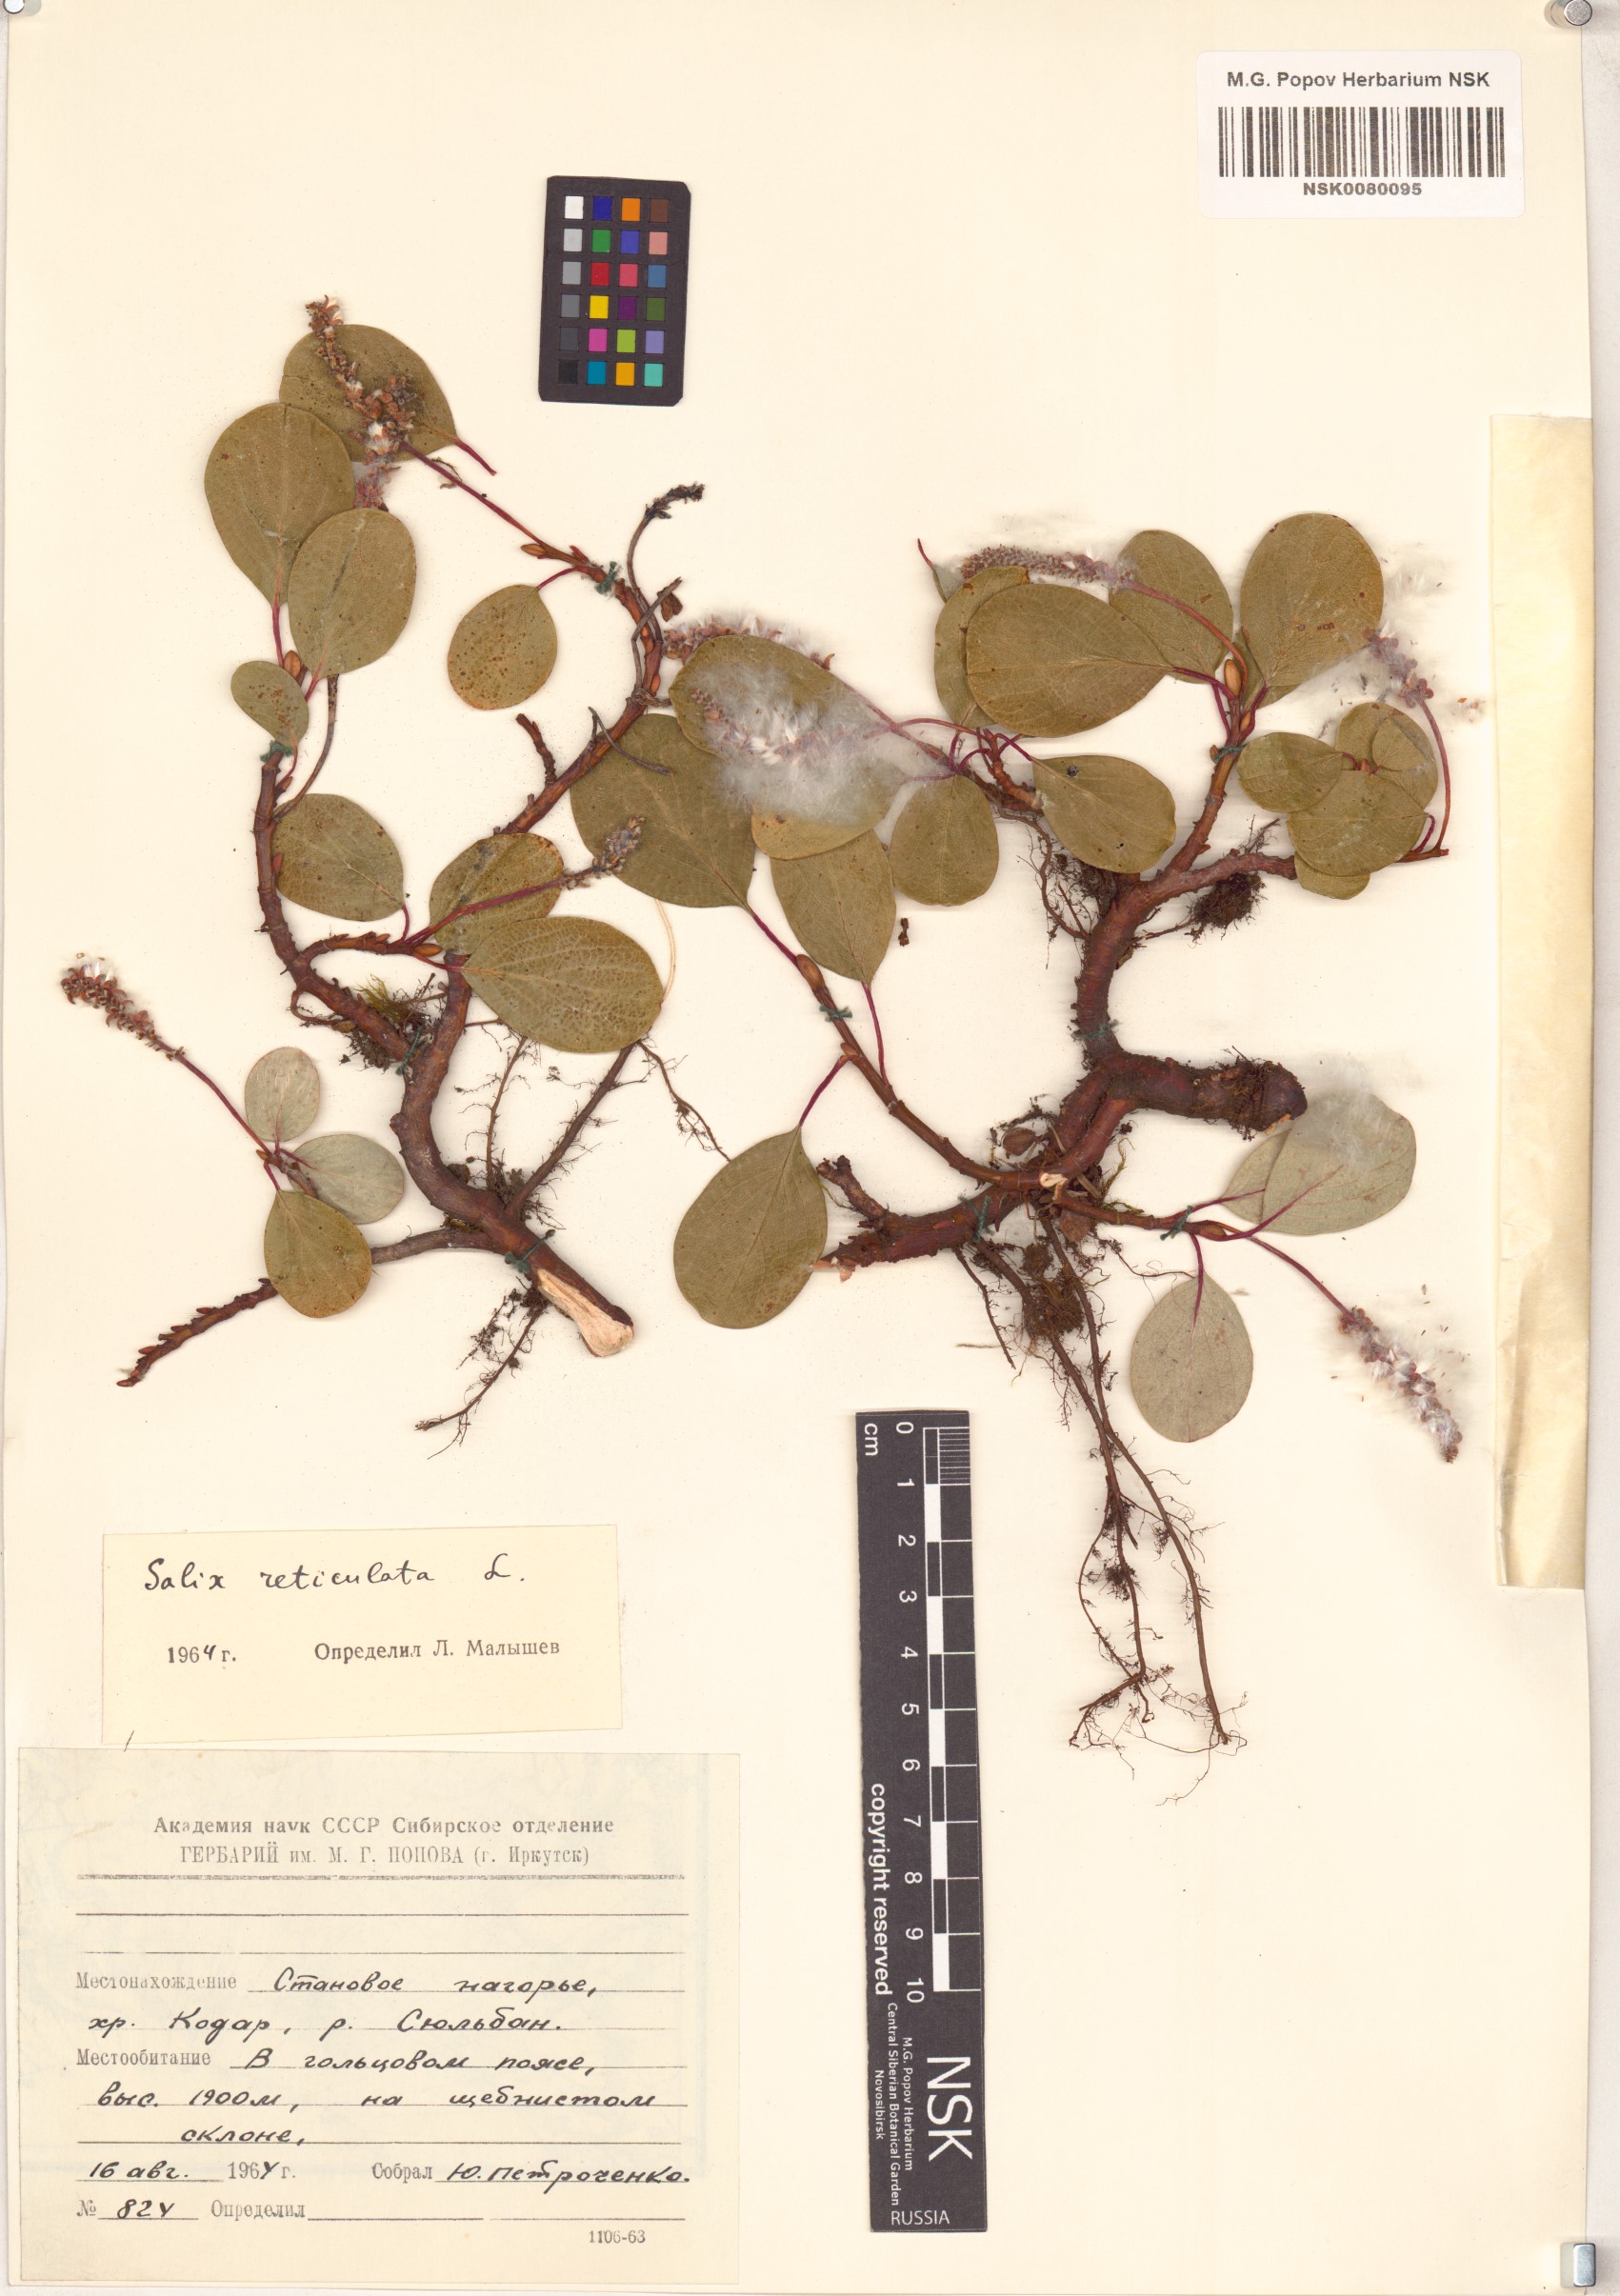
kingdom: Plantae
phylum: Tracheophyta
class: Magnoliopsida
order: Malpighiales
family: Salicaceae
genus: Salix
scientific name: Salix reticulata
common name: Net-leaved willow
